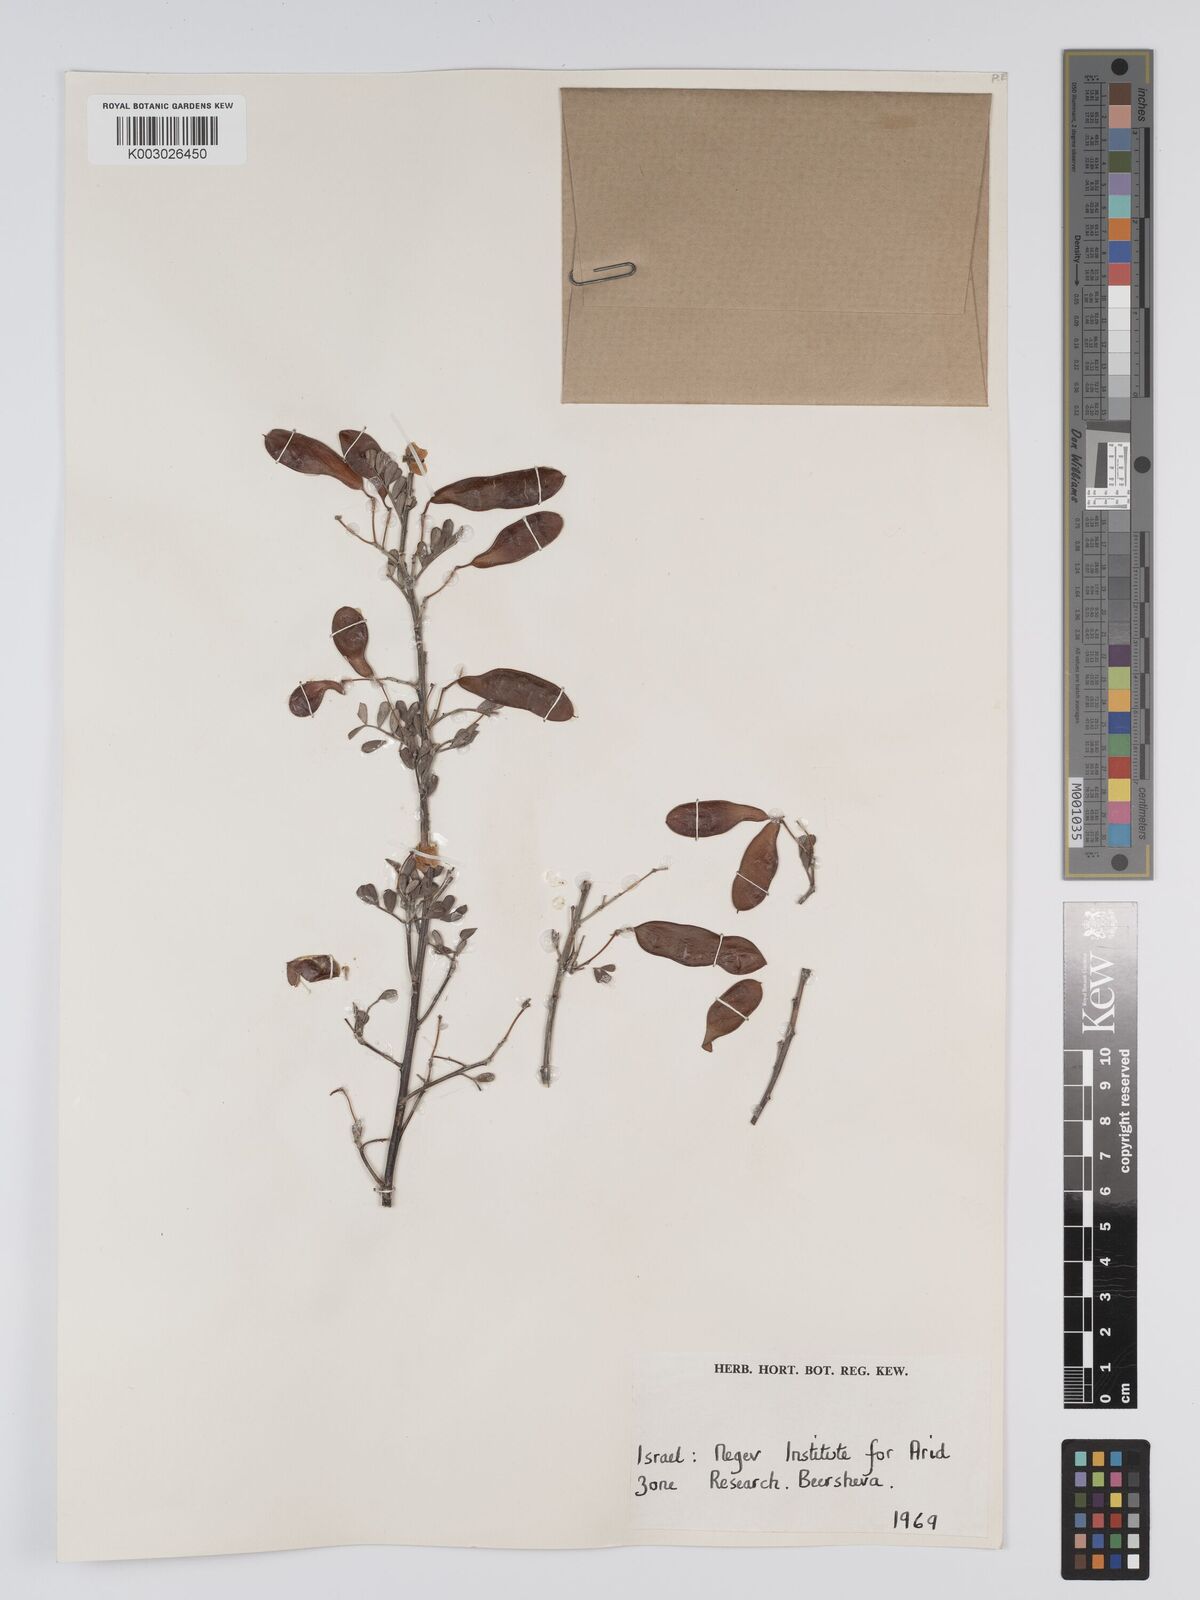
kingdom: Plantae
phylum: Tracheophyta
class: Magnoliopsida
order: Fabales
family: Fabaceae
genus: Cassia
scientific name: Cassia
